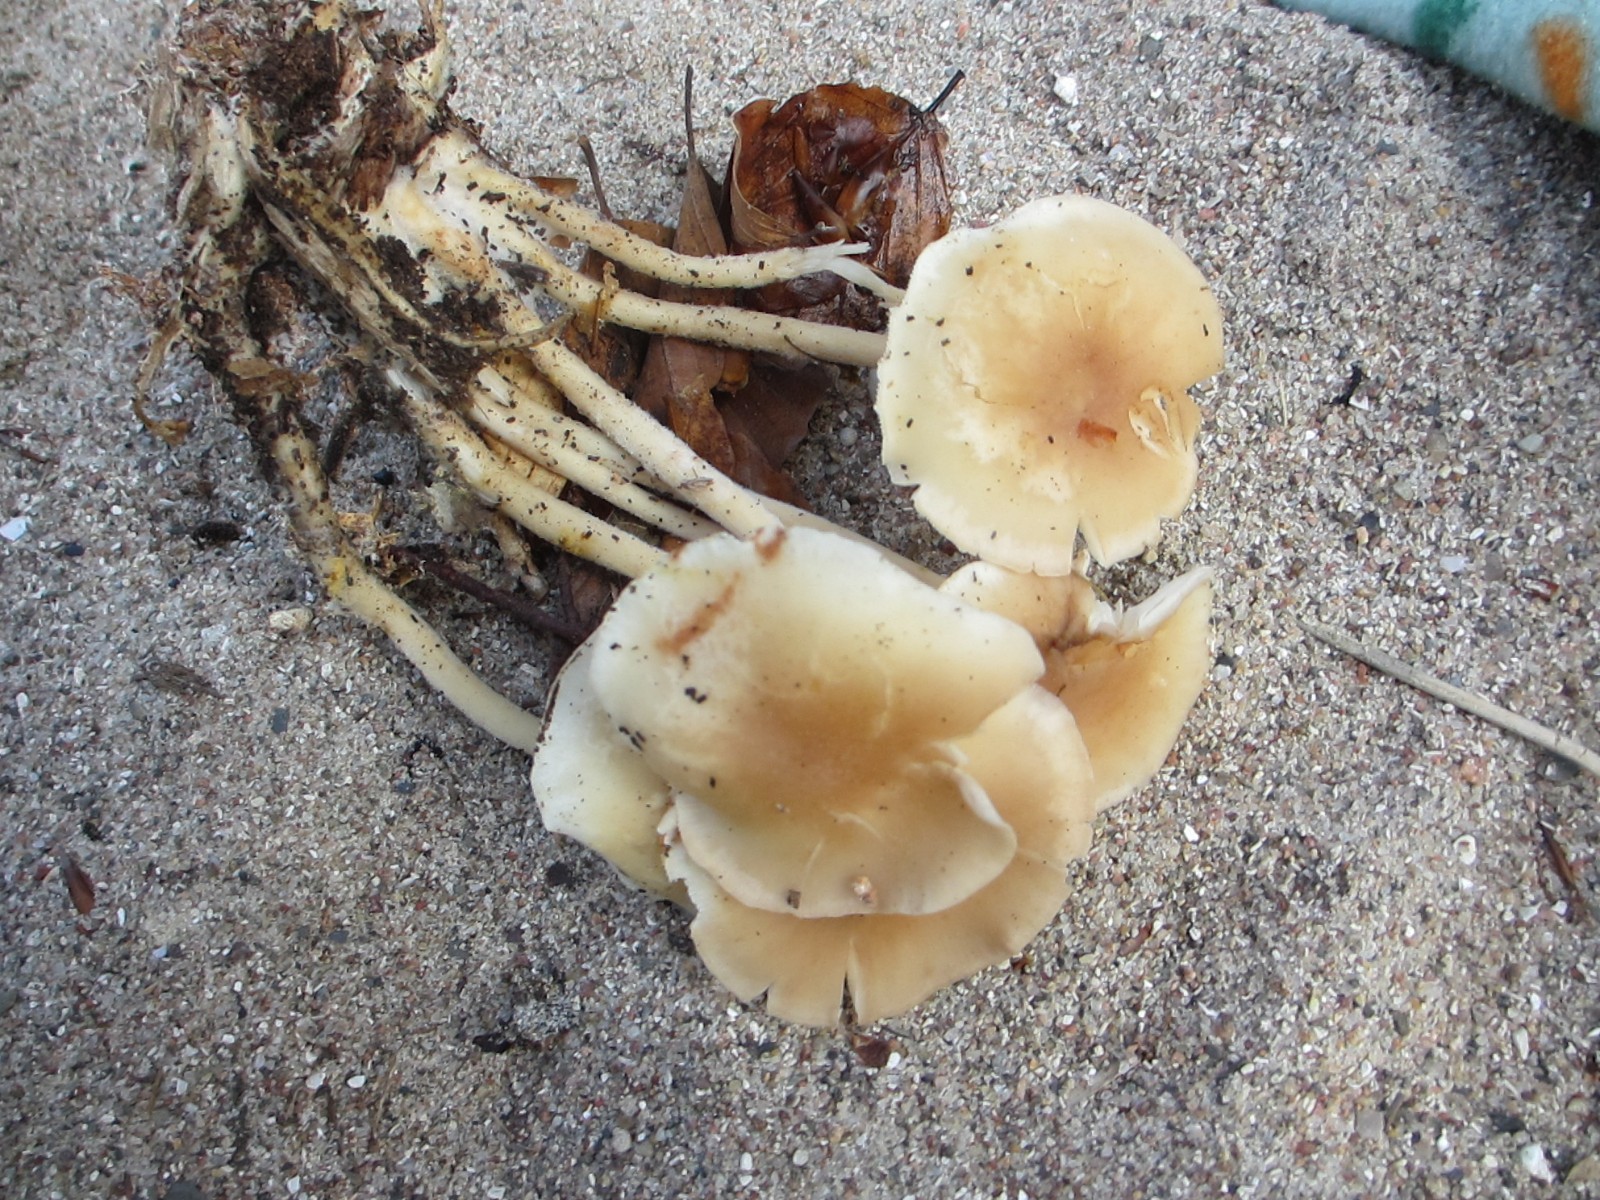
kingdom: Fungi
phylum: Basidiomycota
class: Agaricomycetes
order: Agaricales
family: Omphalotaceae
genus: Collybiopsis
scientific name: Collybiopsis confluens
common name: knippe-fladhat
